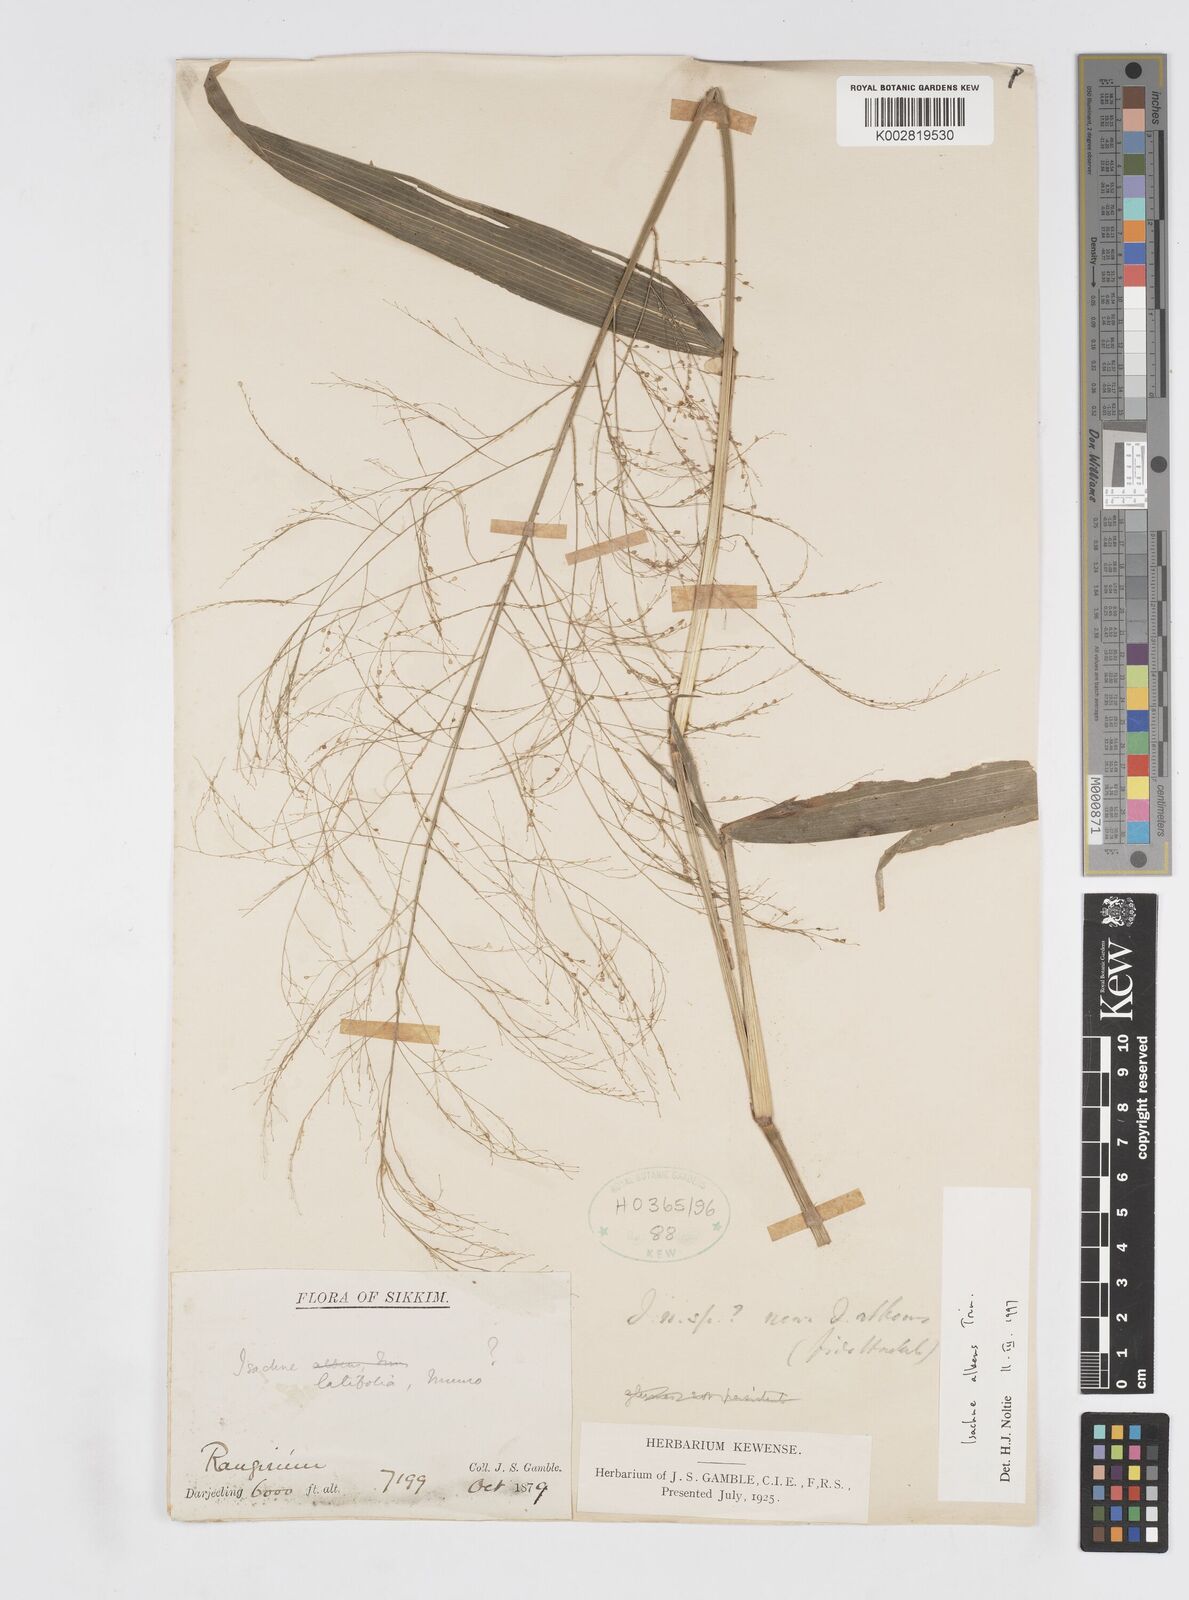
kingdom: Plantae
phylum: Tracheophyta
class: Liliopsida
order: Poales
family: Poaceae
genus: Isachne
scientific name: Isachne albens
